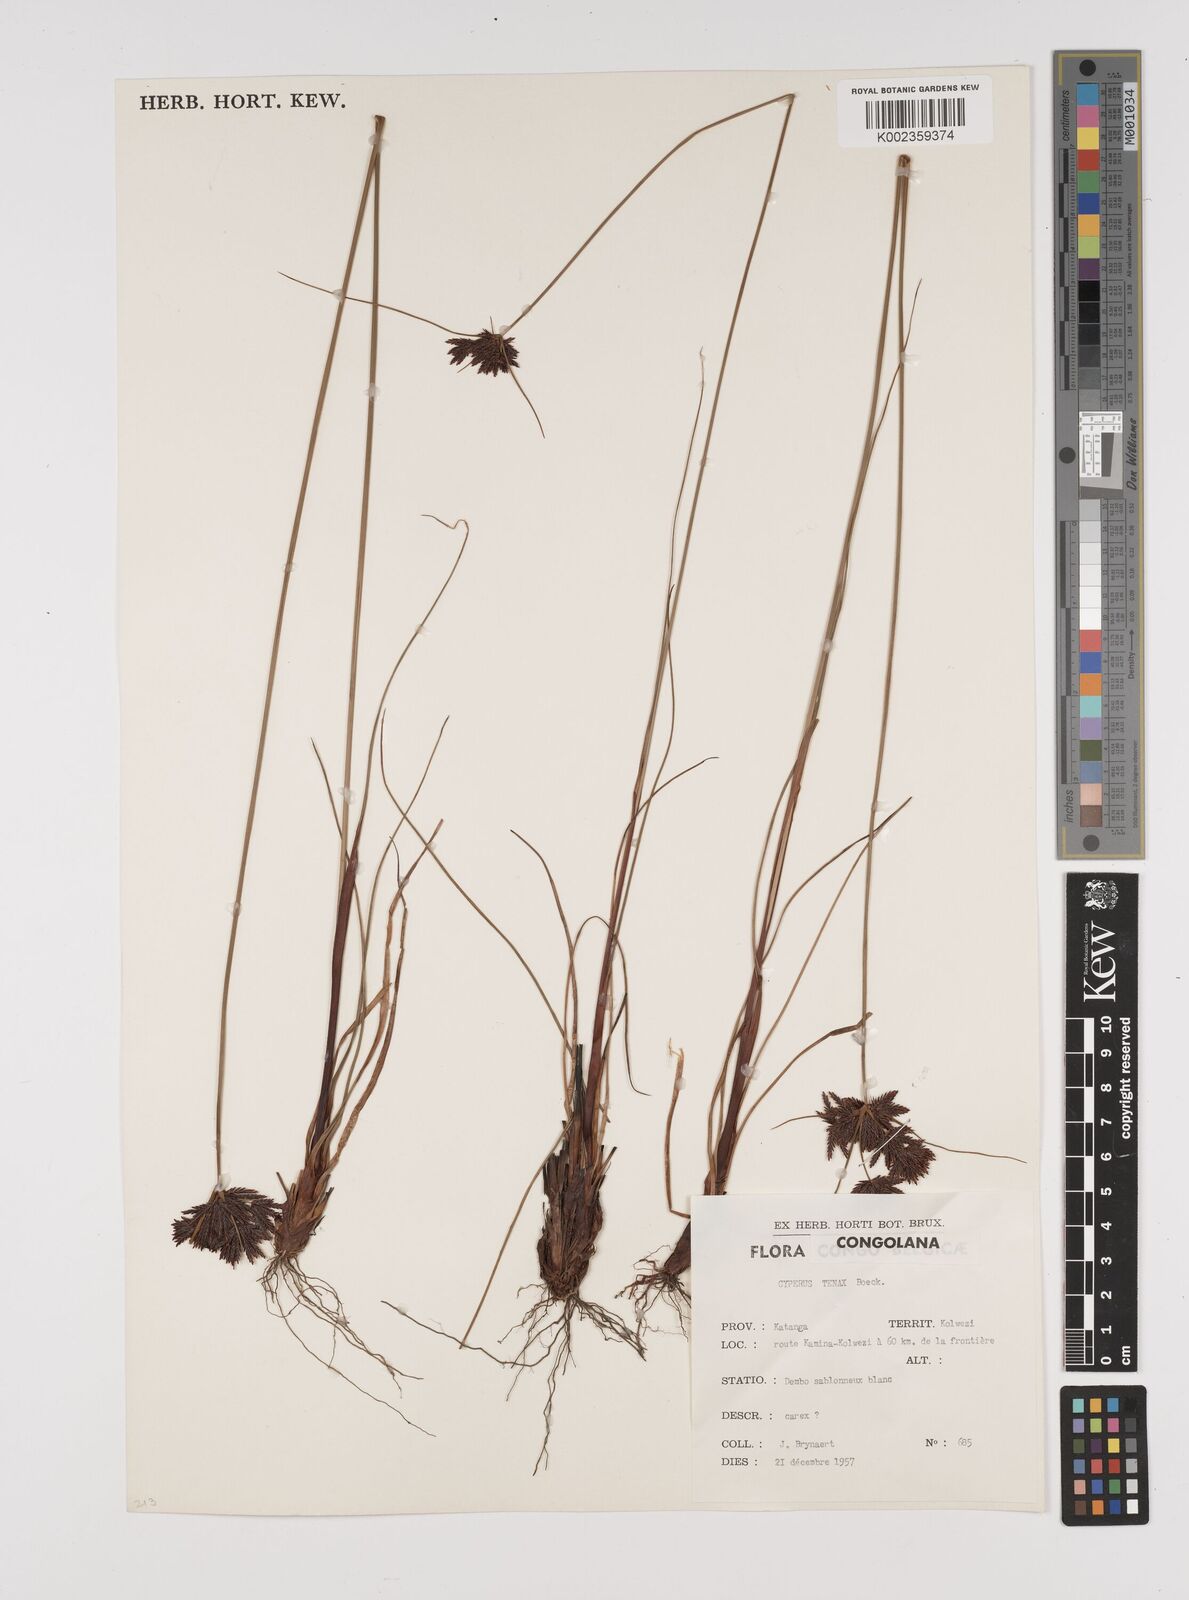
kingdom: Plantae
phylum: Tracheophyta
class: Liliopsida
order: Poales
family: Cyperaceae
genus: Cyperus
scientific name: Cyperus tenax
